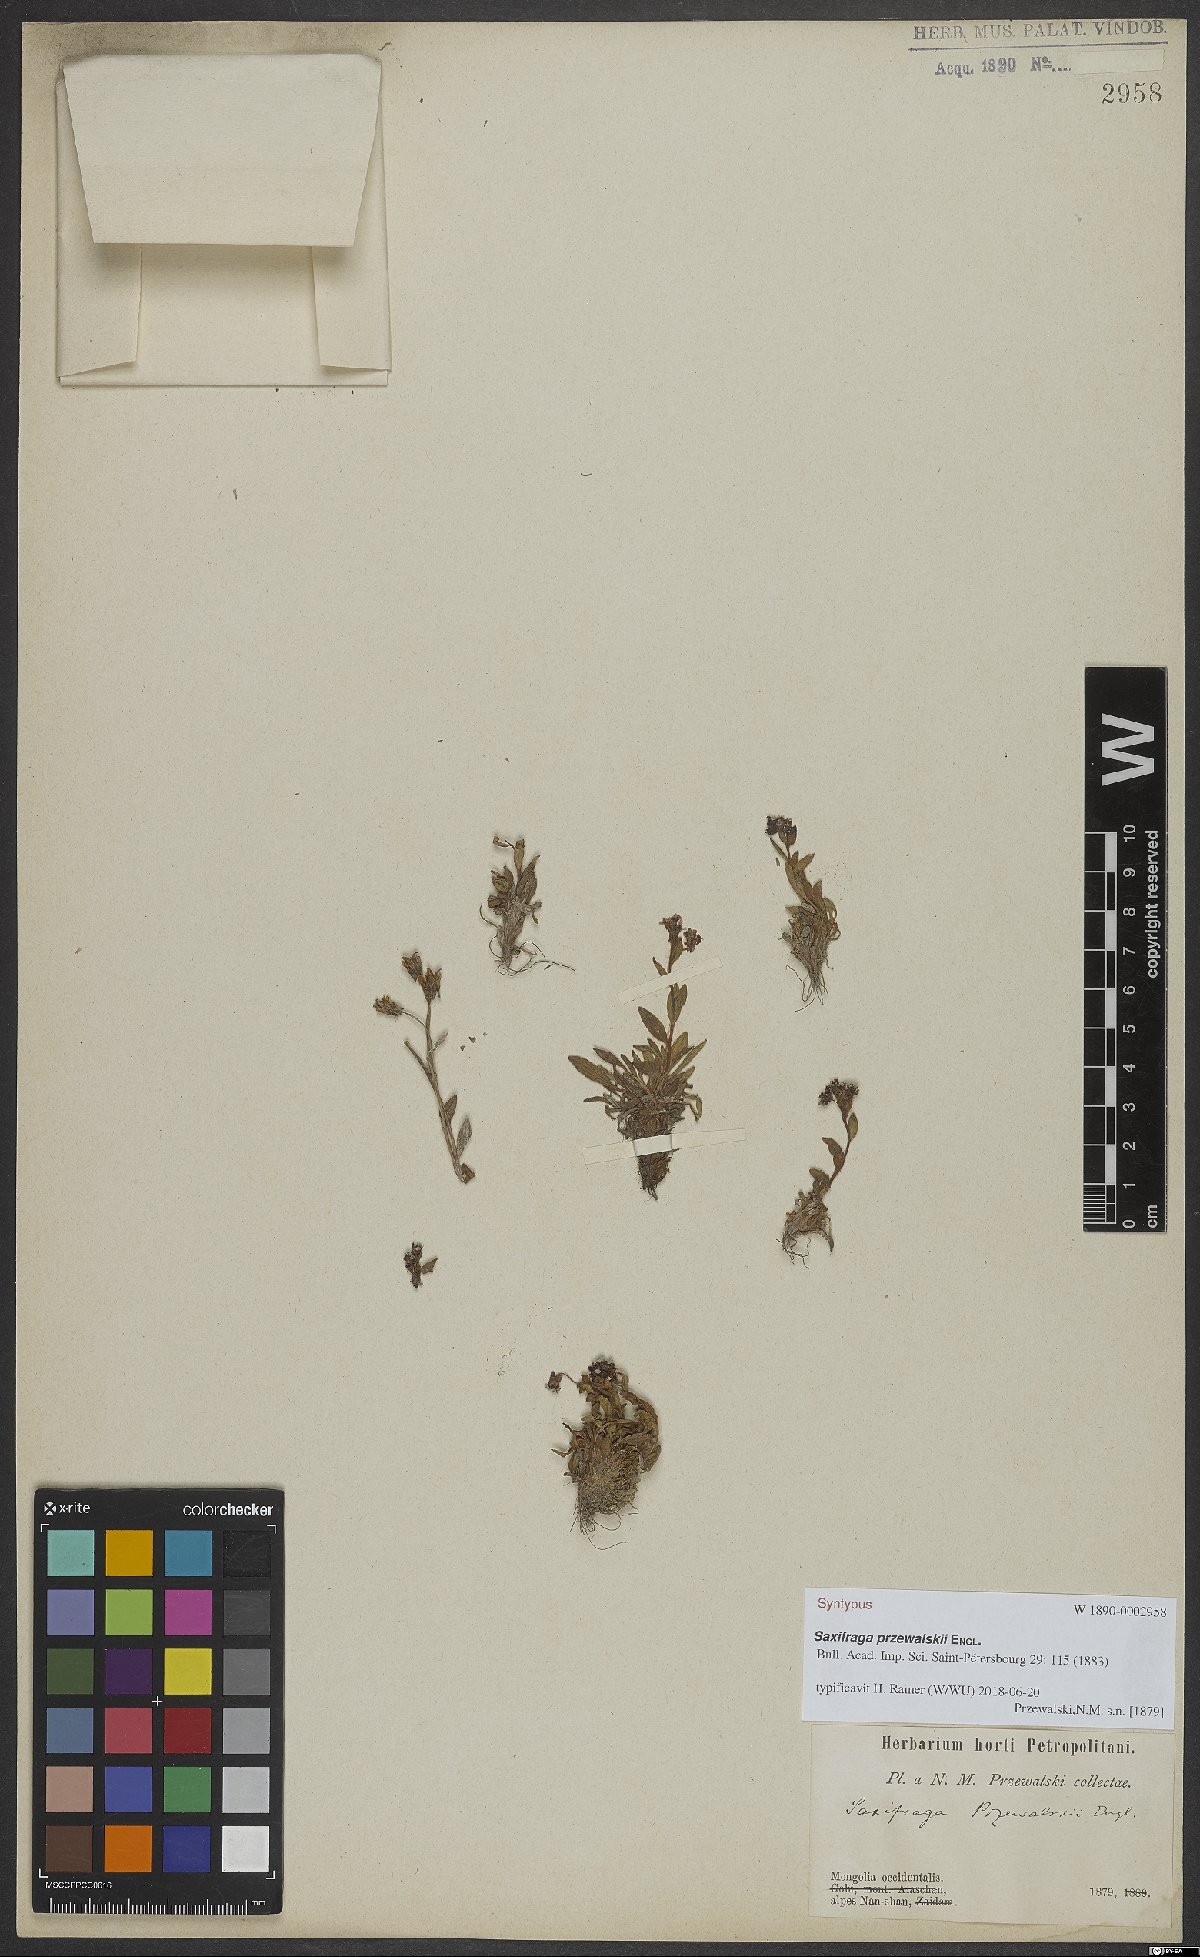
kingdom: Plantae
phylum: Tracheophyta
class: Magnoliopsida
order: Saxifragales
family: Saxifragaceae
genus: Saxifraga
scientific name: Saxifraga przewalskii
